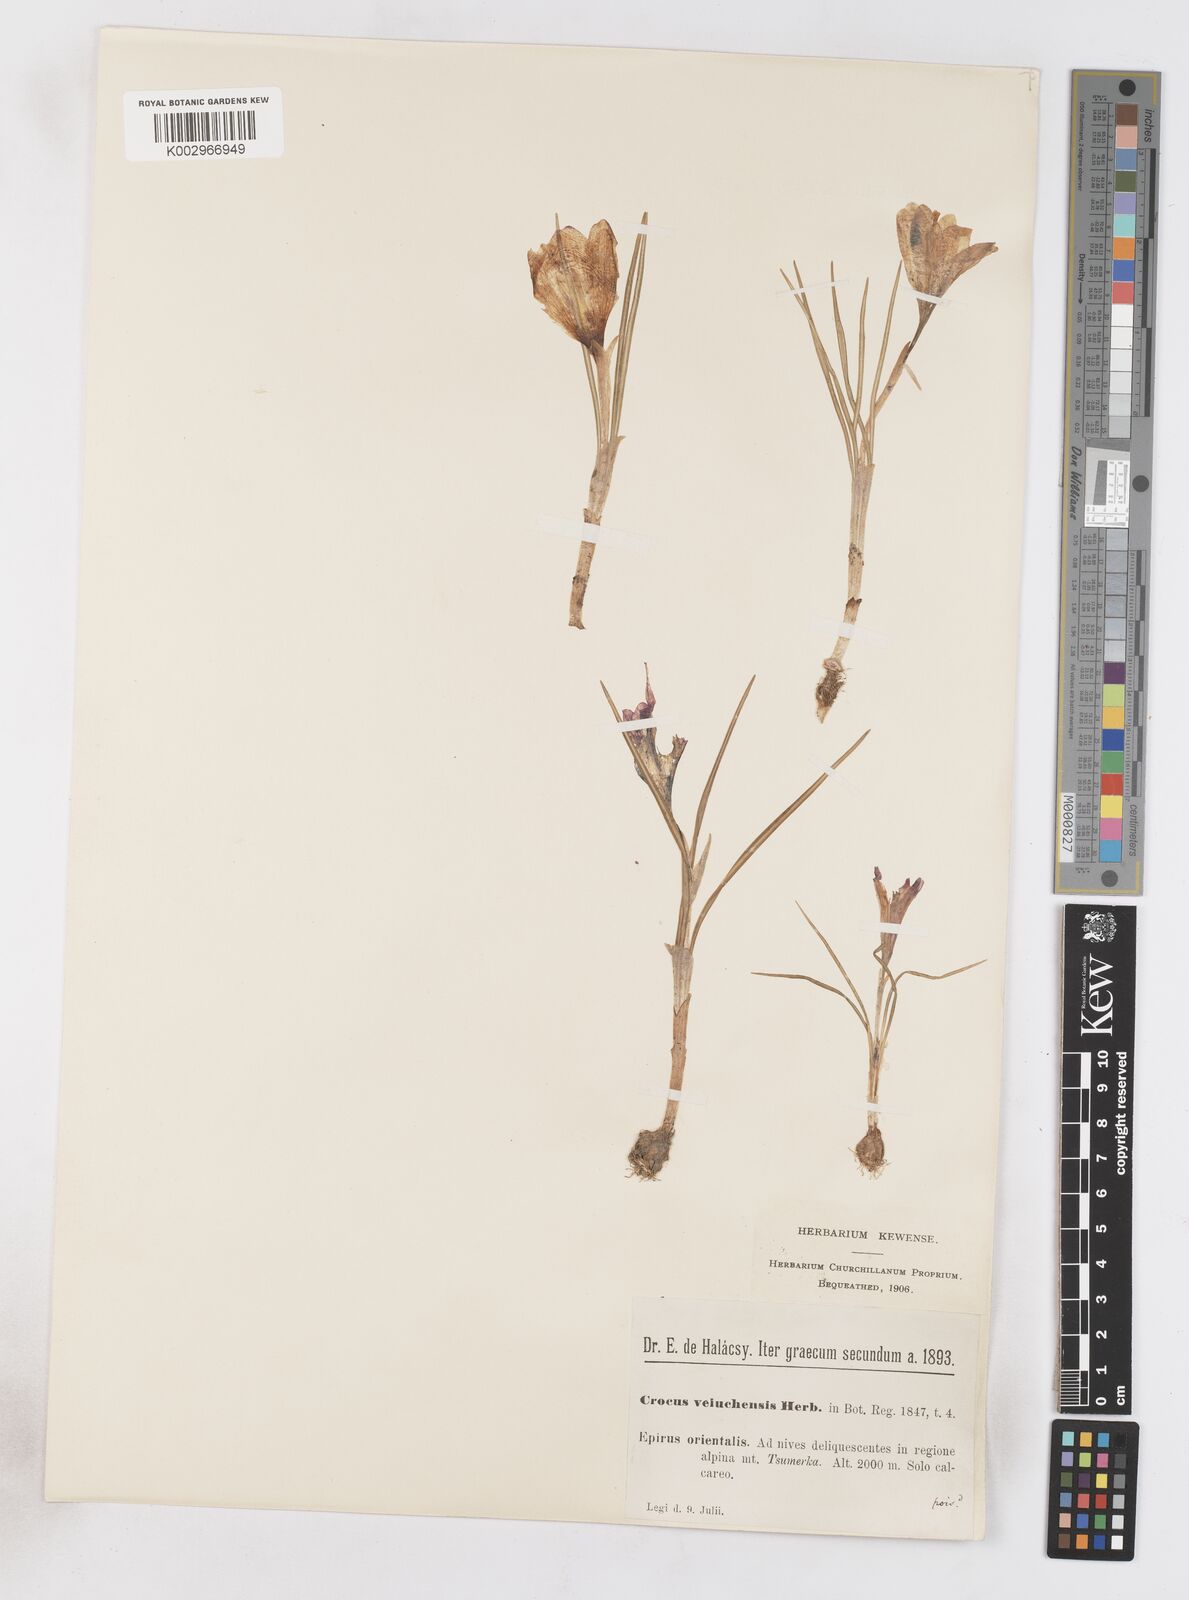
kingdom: Plantae
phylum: Tracheophyta
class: Liliopsida
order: Asparagales
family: Iridaceae
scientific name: Iridaceae
